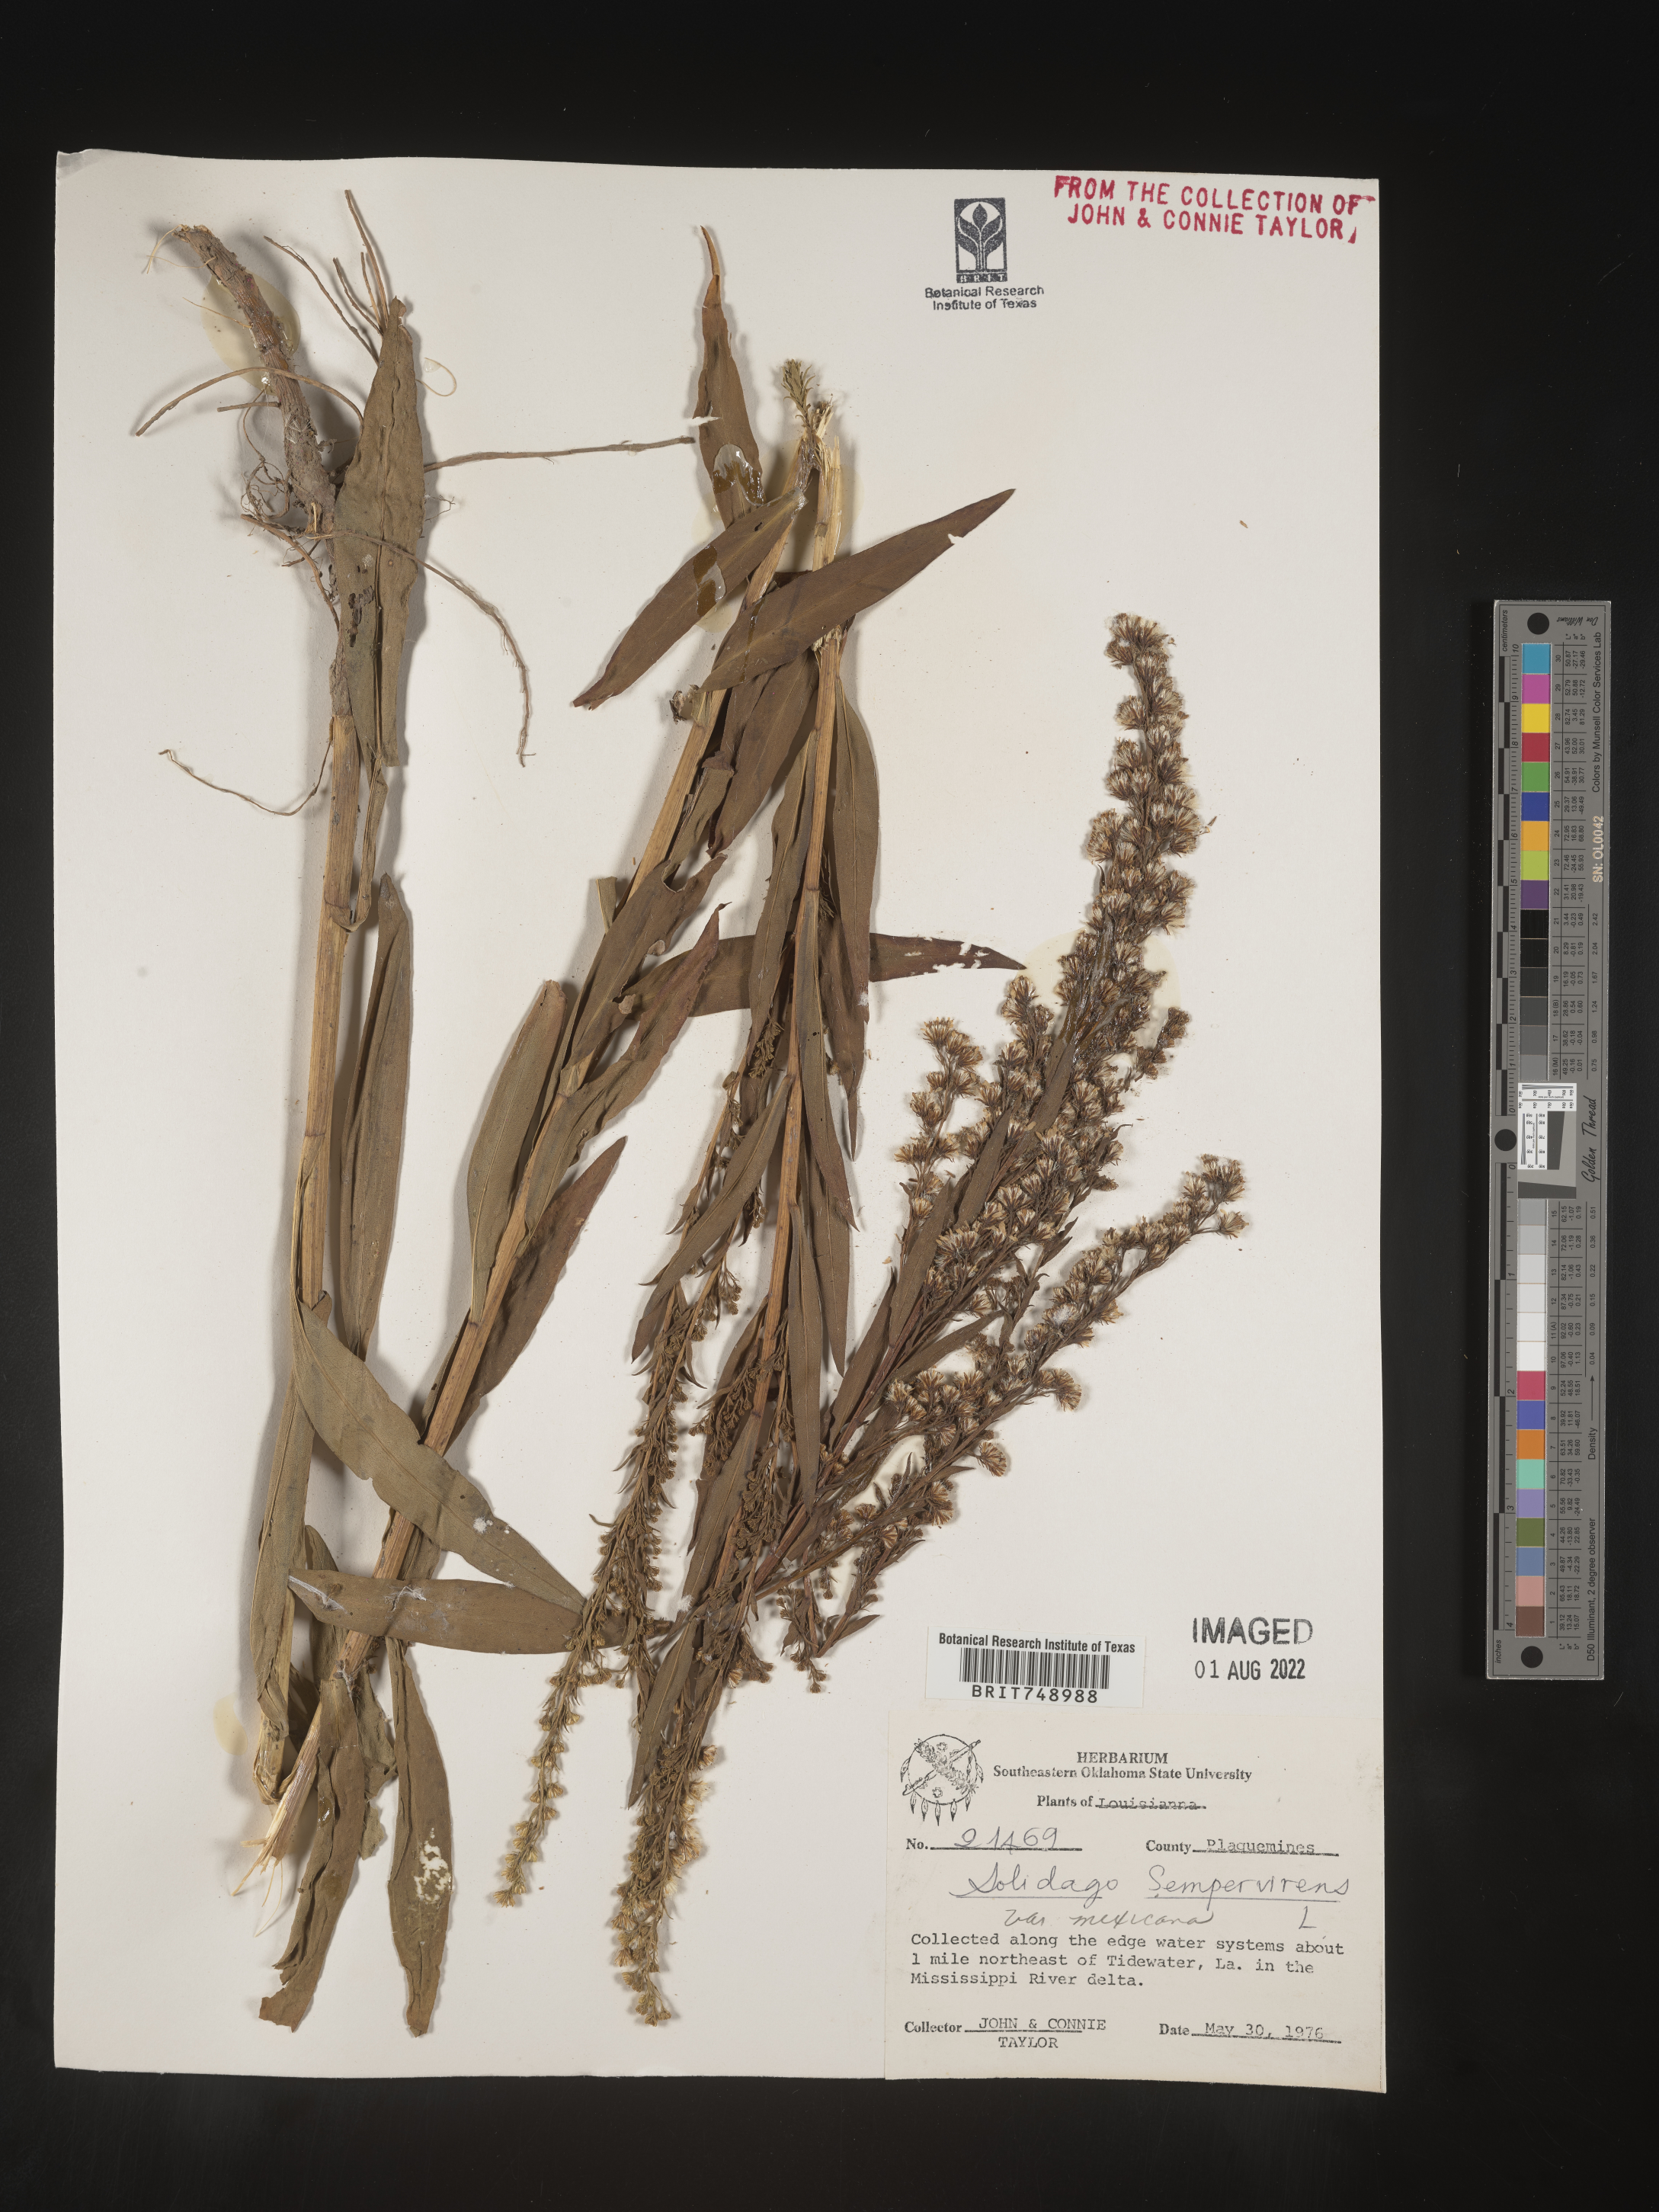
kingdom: Plantae
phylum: Tracheophyta
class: Magnoliopsida
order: Asterales
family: Asteraceae
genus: Solidago
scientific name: Solidago sempervirens
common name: Salt-marsh goldenrod
